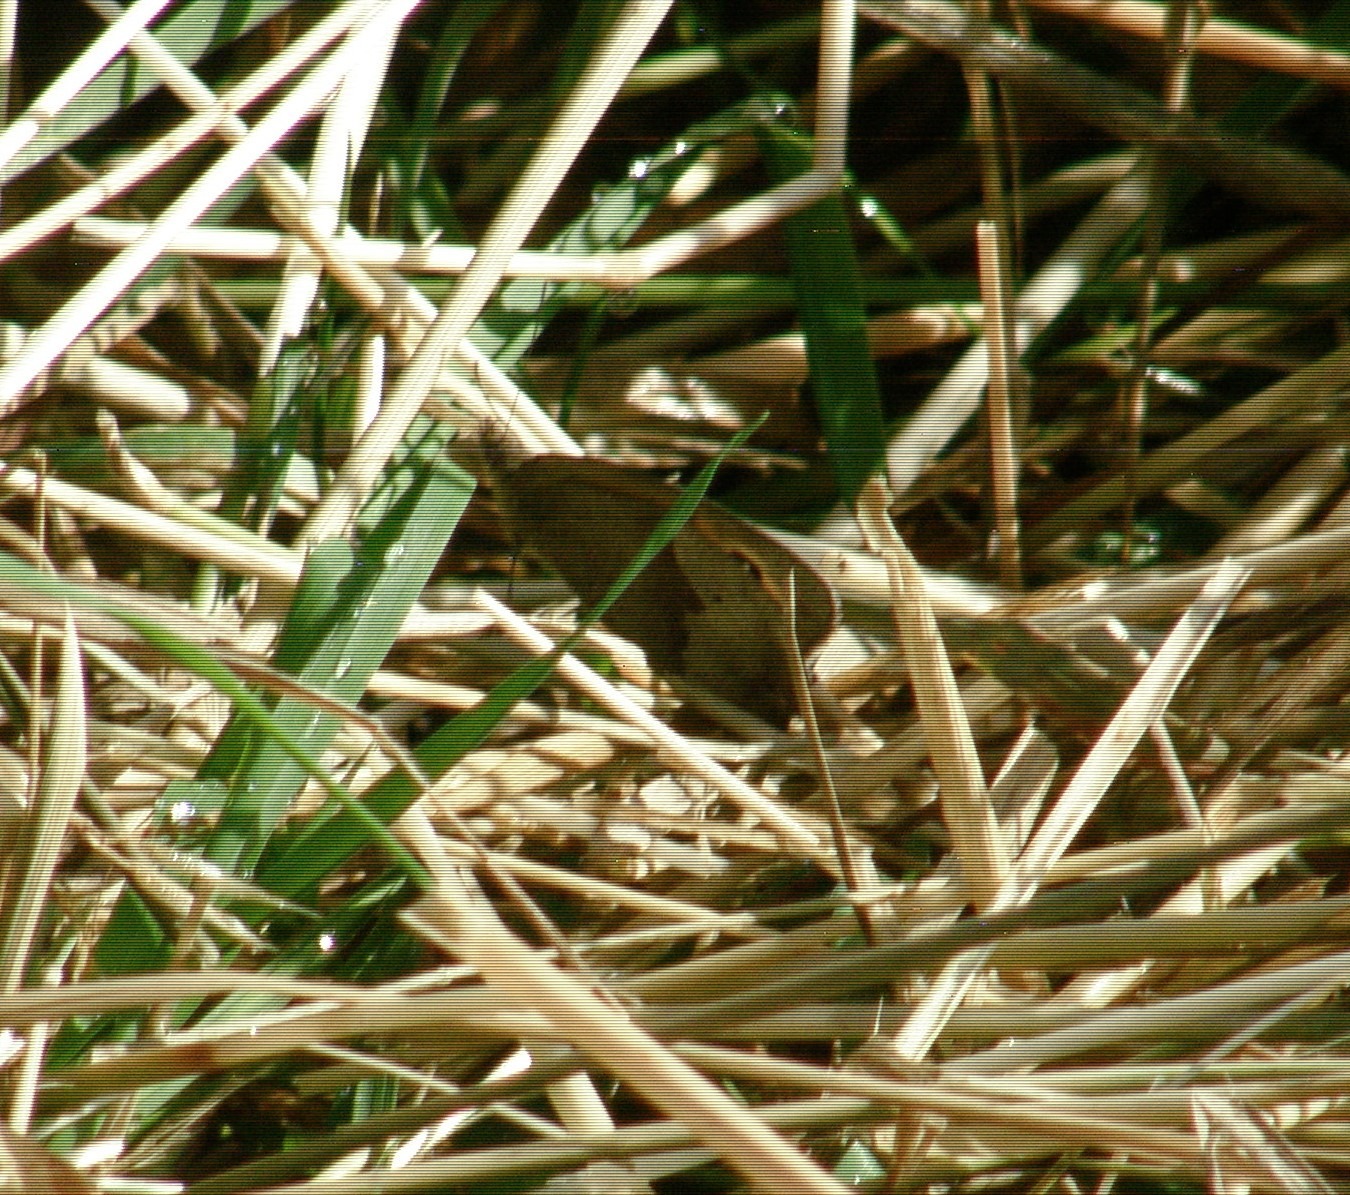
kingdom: Animalia
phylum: Arthropoda
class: Insecta
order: Lepidoptera
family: Nymphalidae
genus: Maniola
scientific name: Maniola jurtina
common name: Græsrandøje
